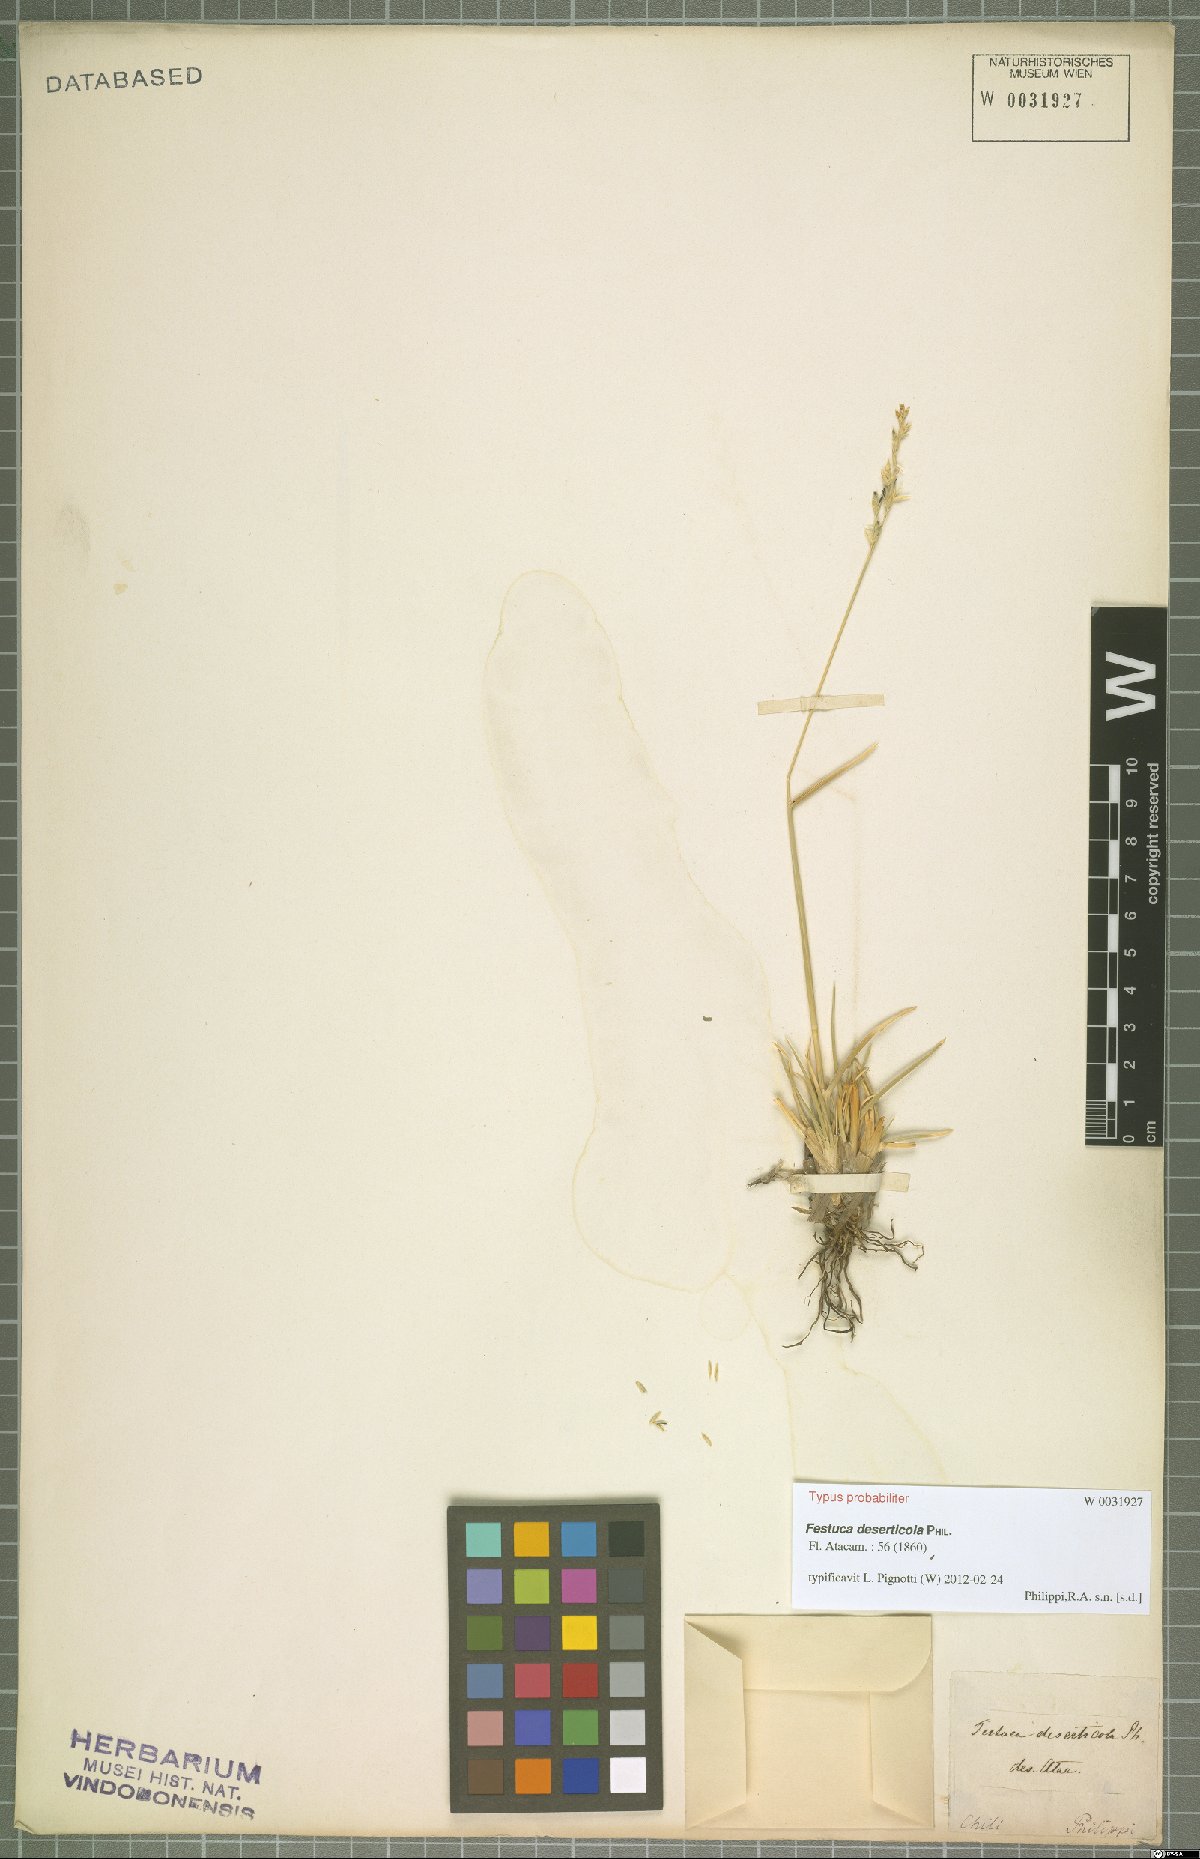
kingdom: Plantae
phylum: Tracheophyta
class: Liliopsida
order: Poales
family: Poaceae
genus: Festuca
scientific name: Festuca rigescens
